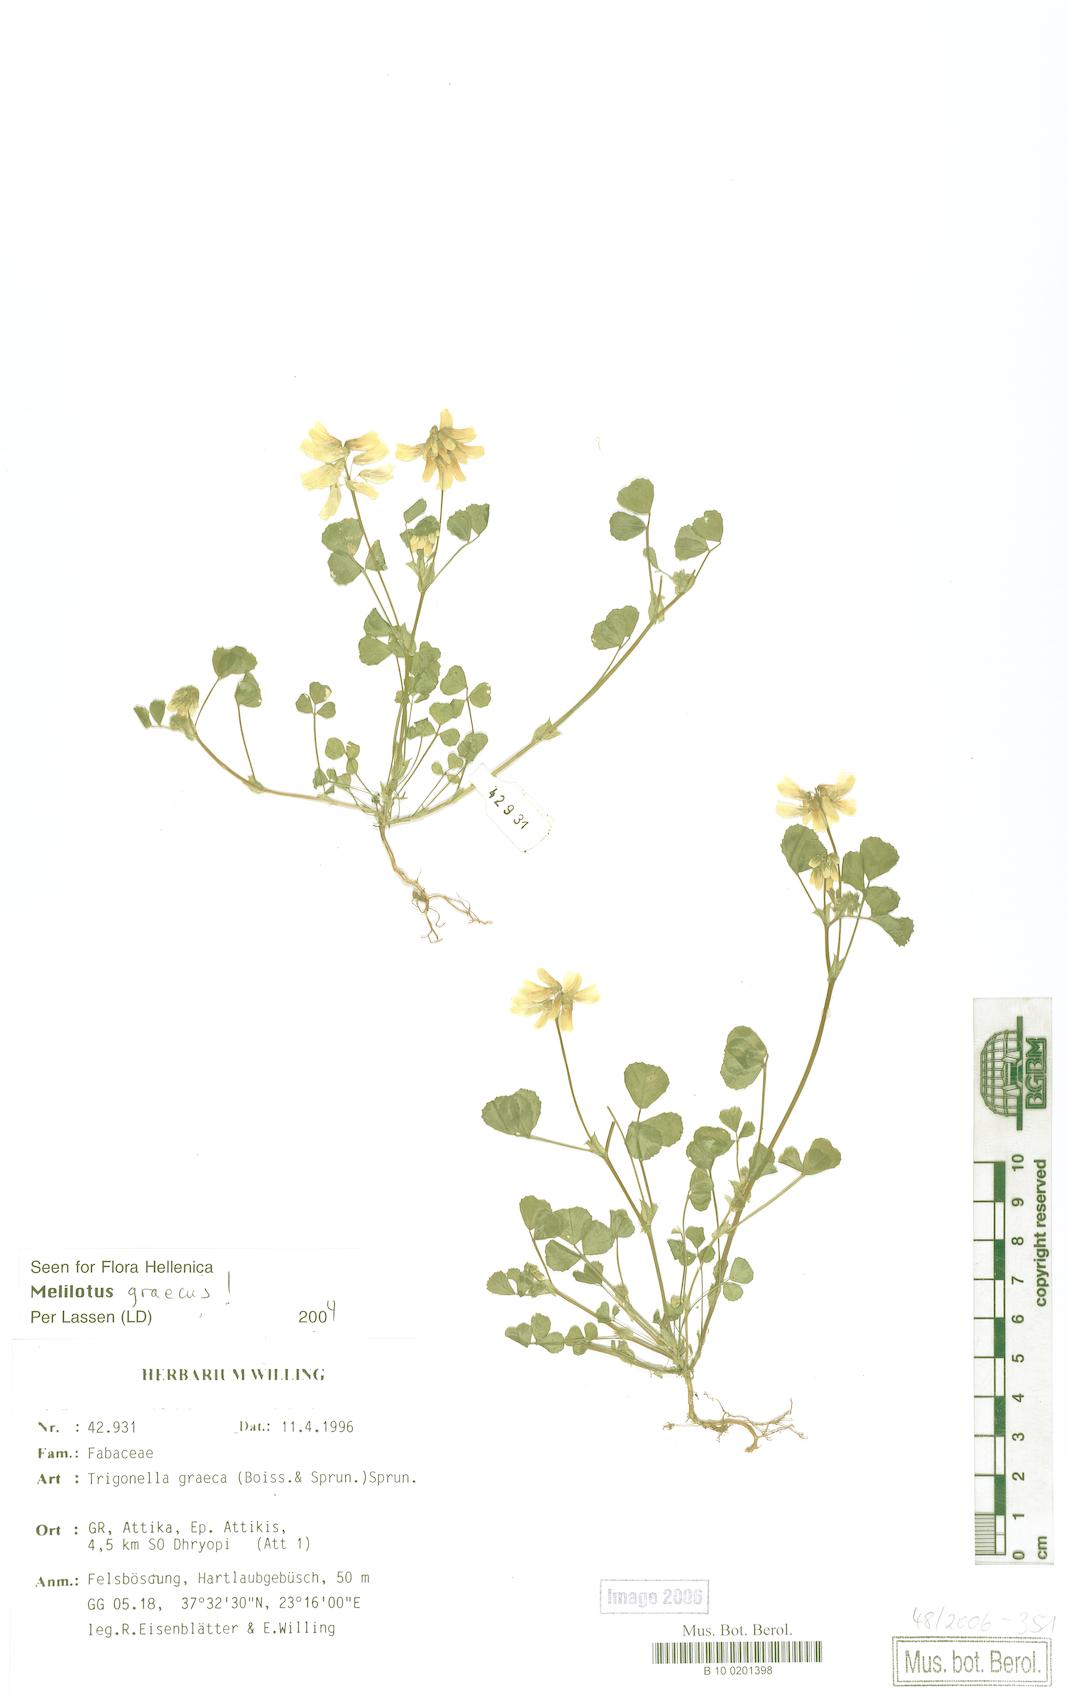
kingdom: Plantae
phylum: Tracheophyta
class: Magnoliopsida
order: Fabales
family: Fabaceae
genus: Trigonella
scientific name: Trigonella graeca
